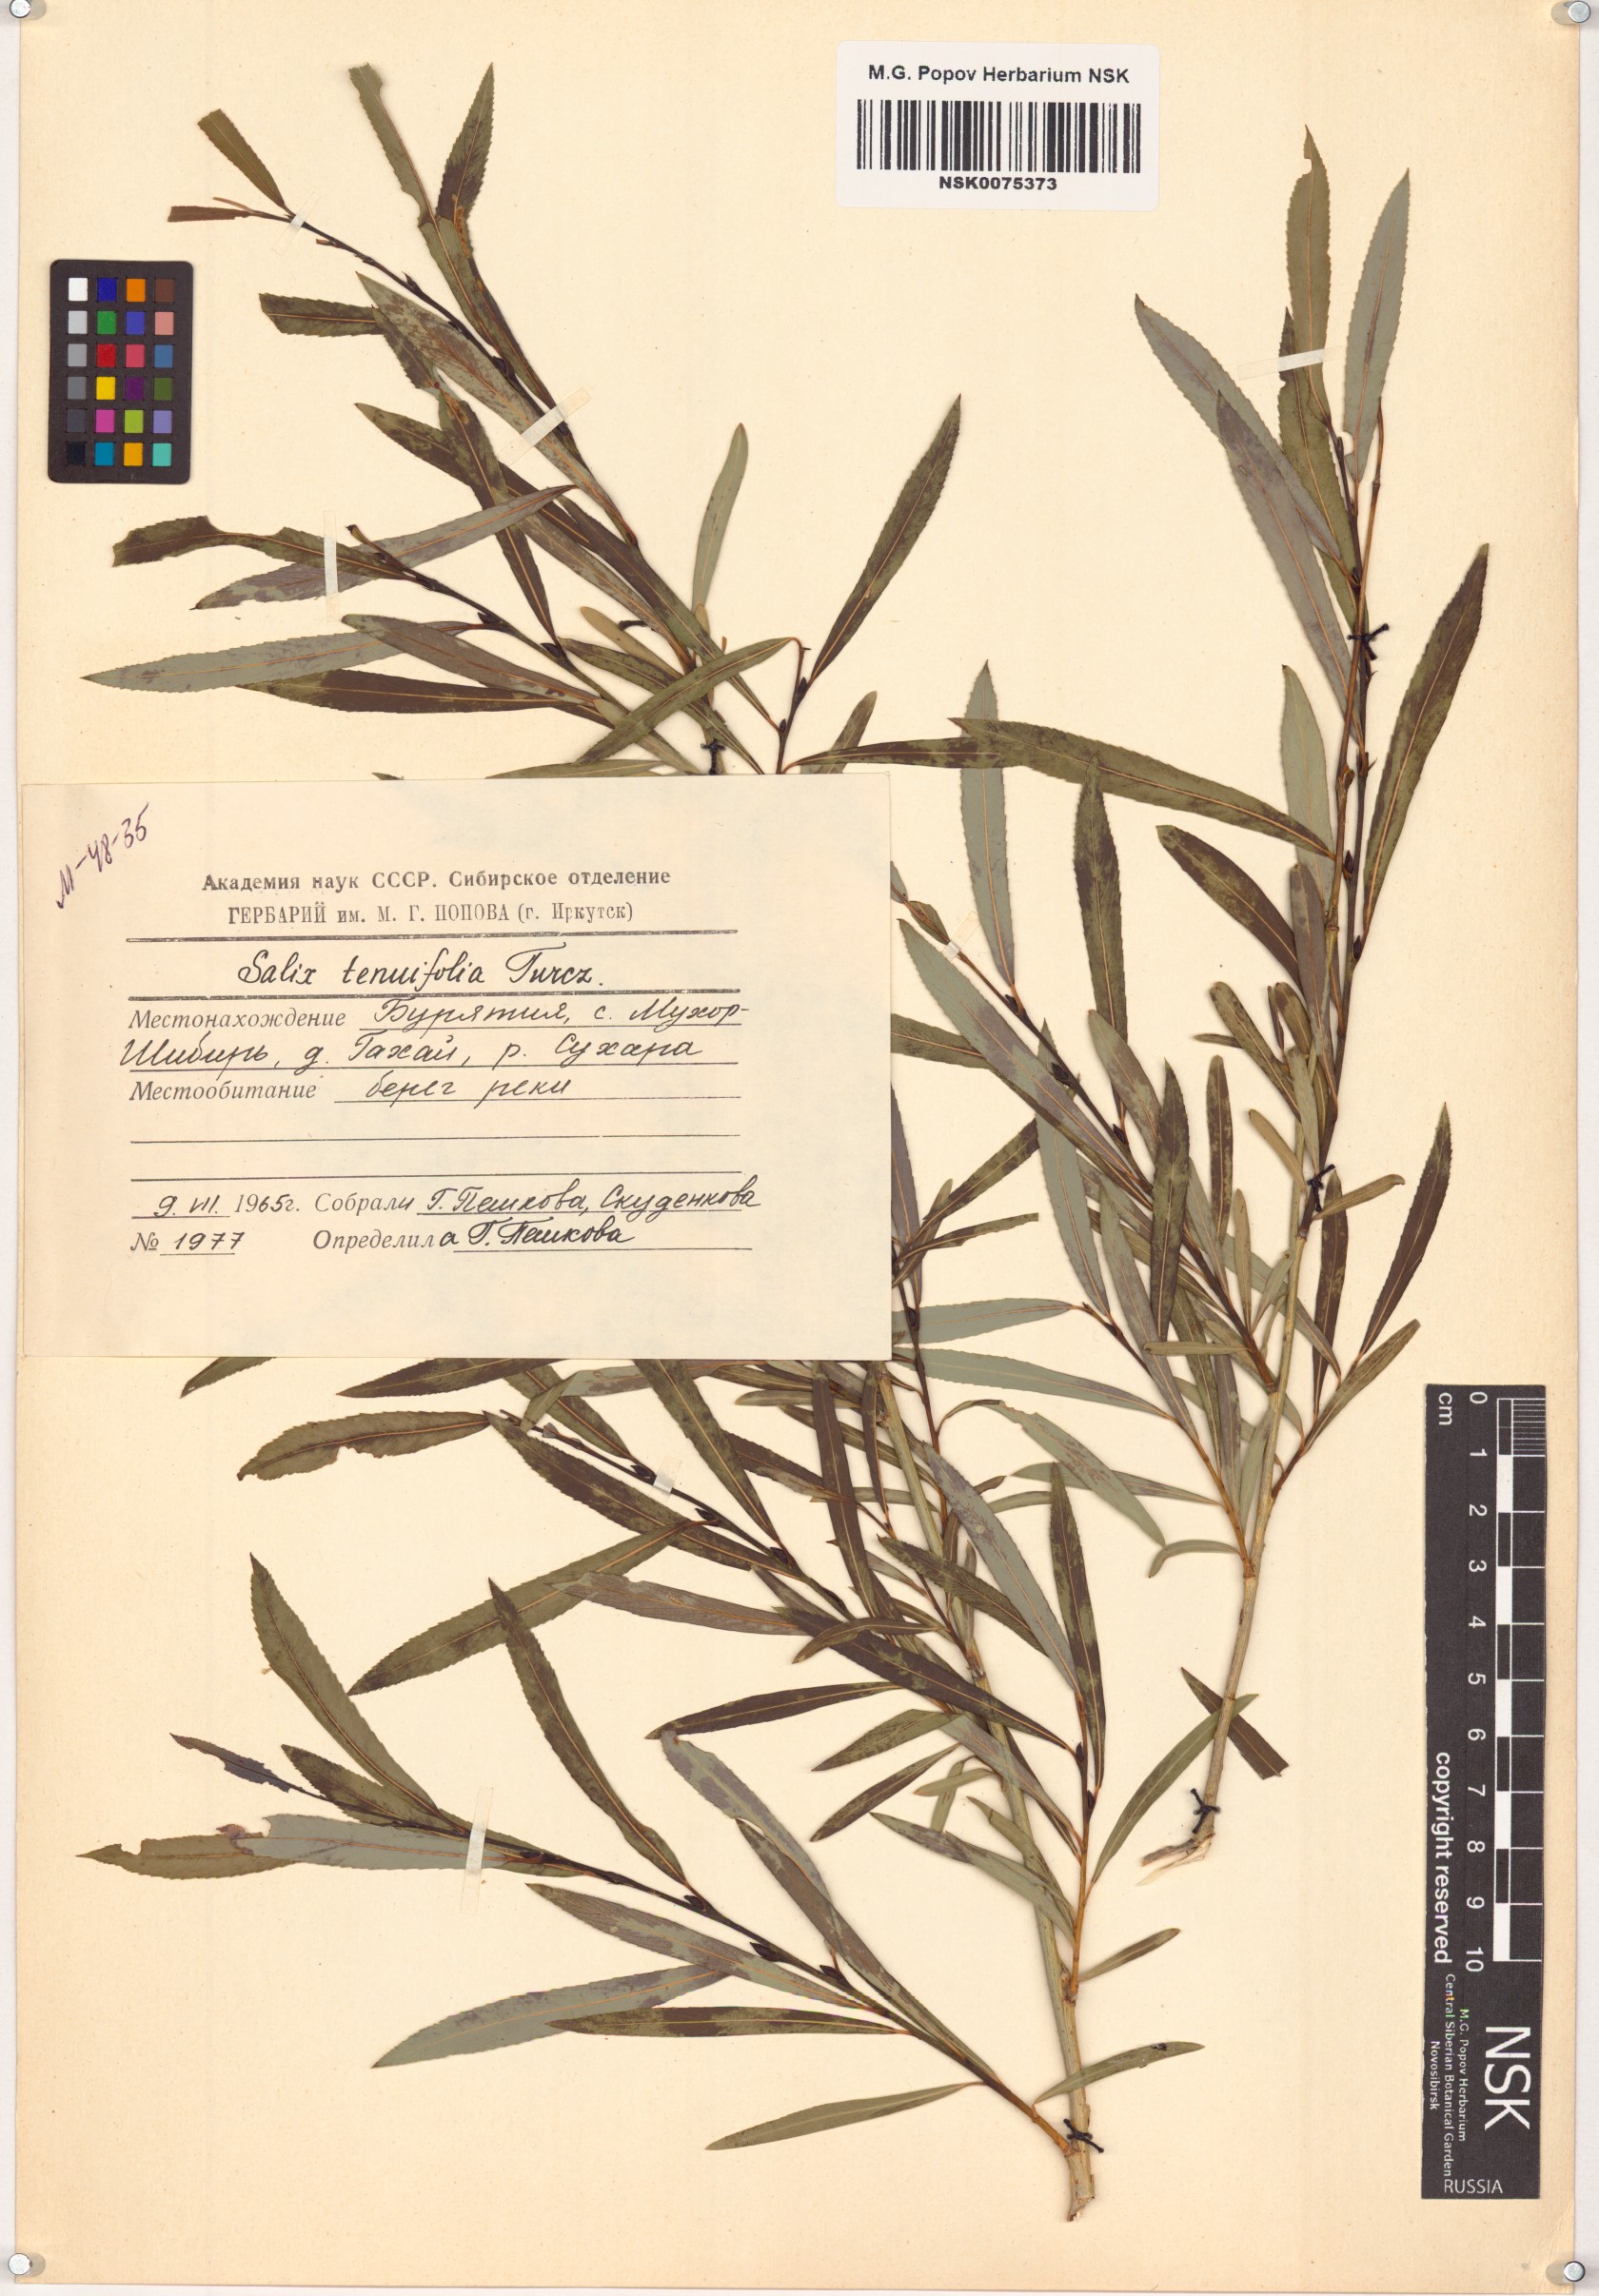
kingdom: Plantae
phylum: Tracheophyta
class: Magnoliopsida
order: Malpighiales
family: Salicaceae
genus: Salix
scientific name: Salix
